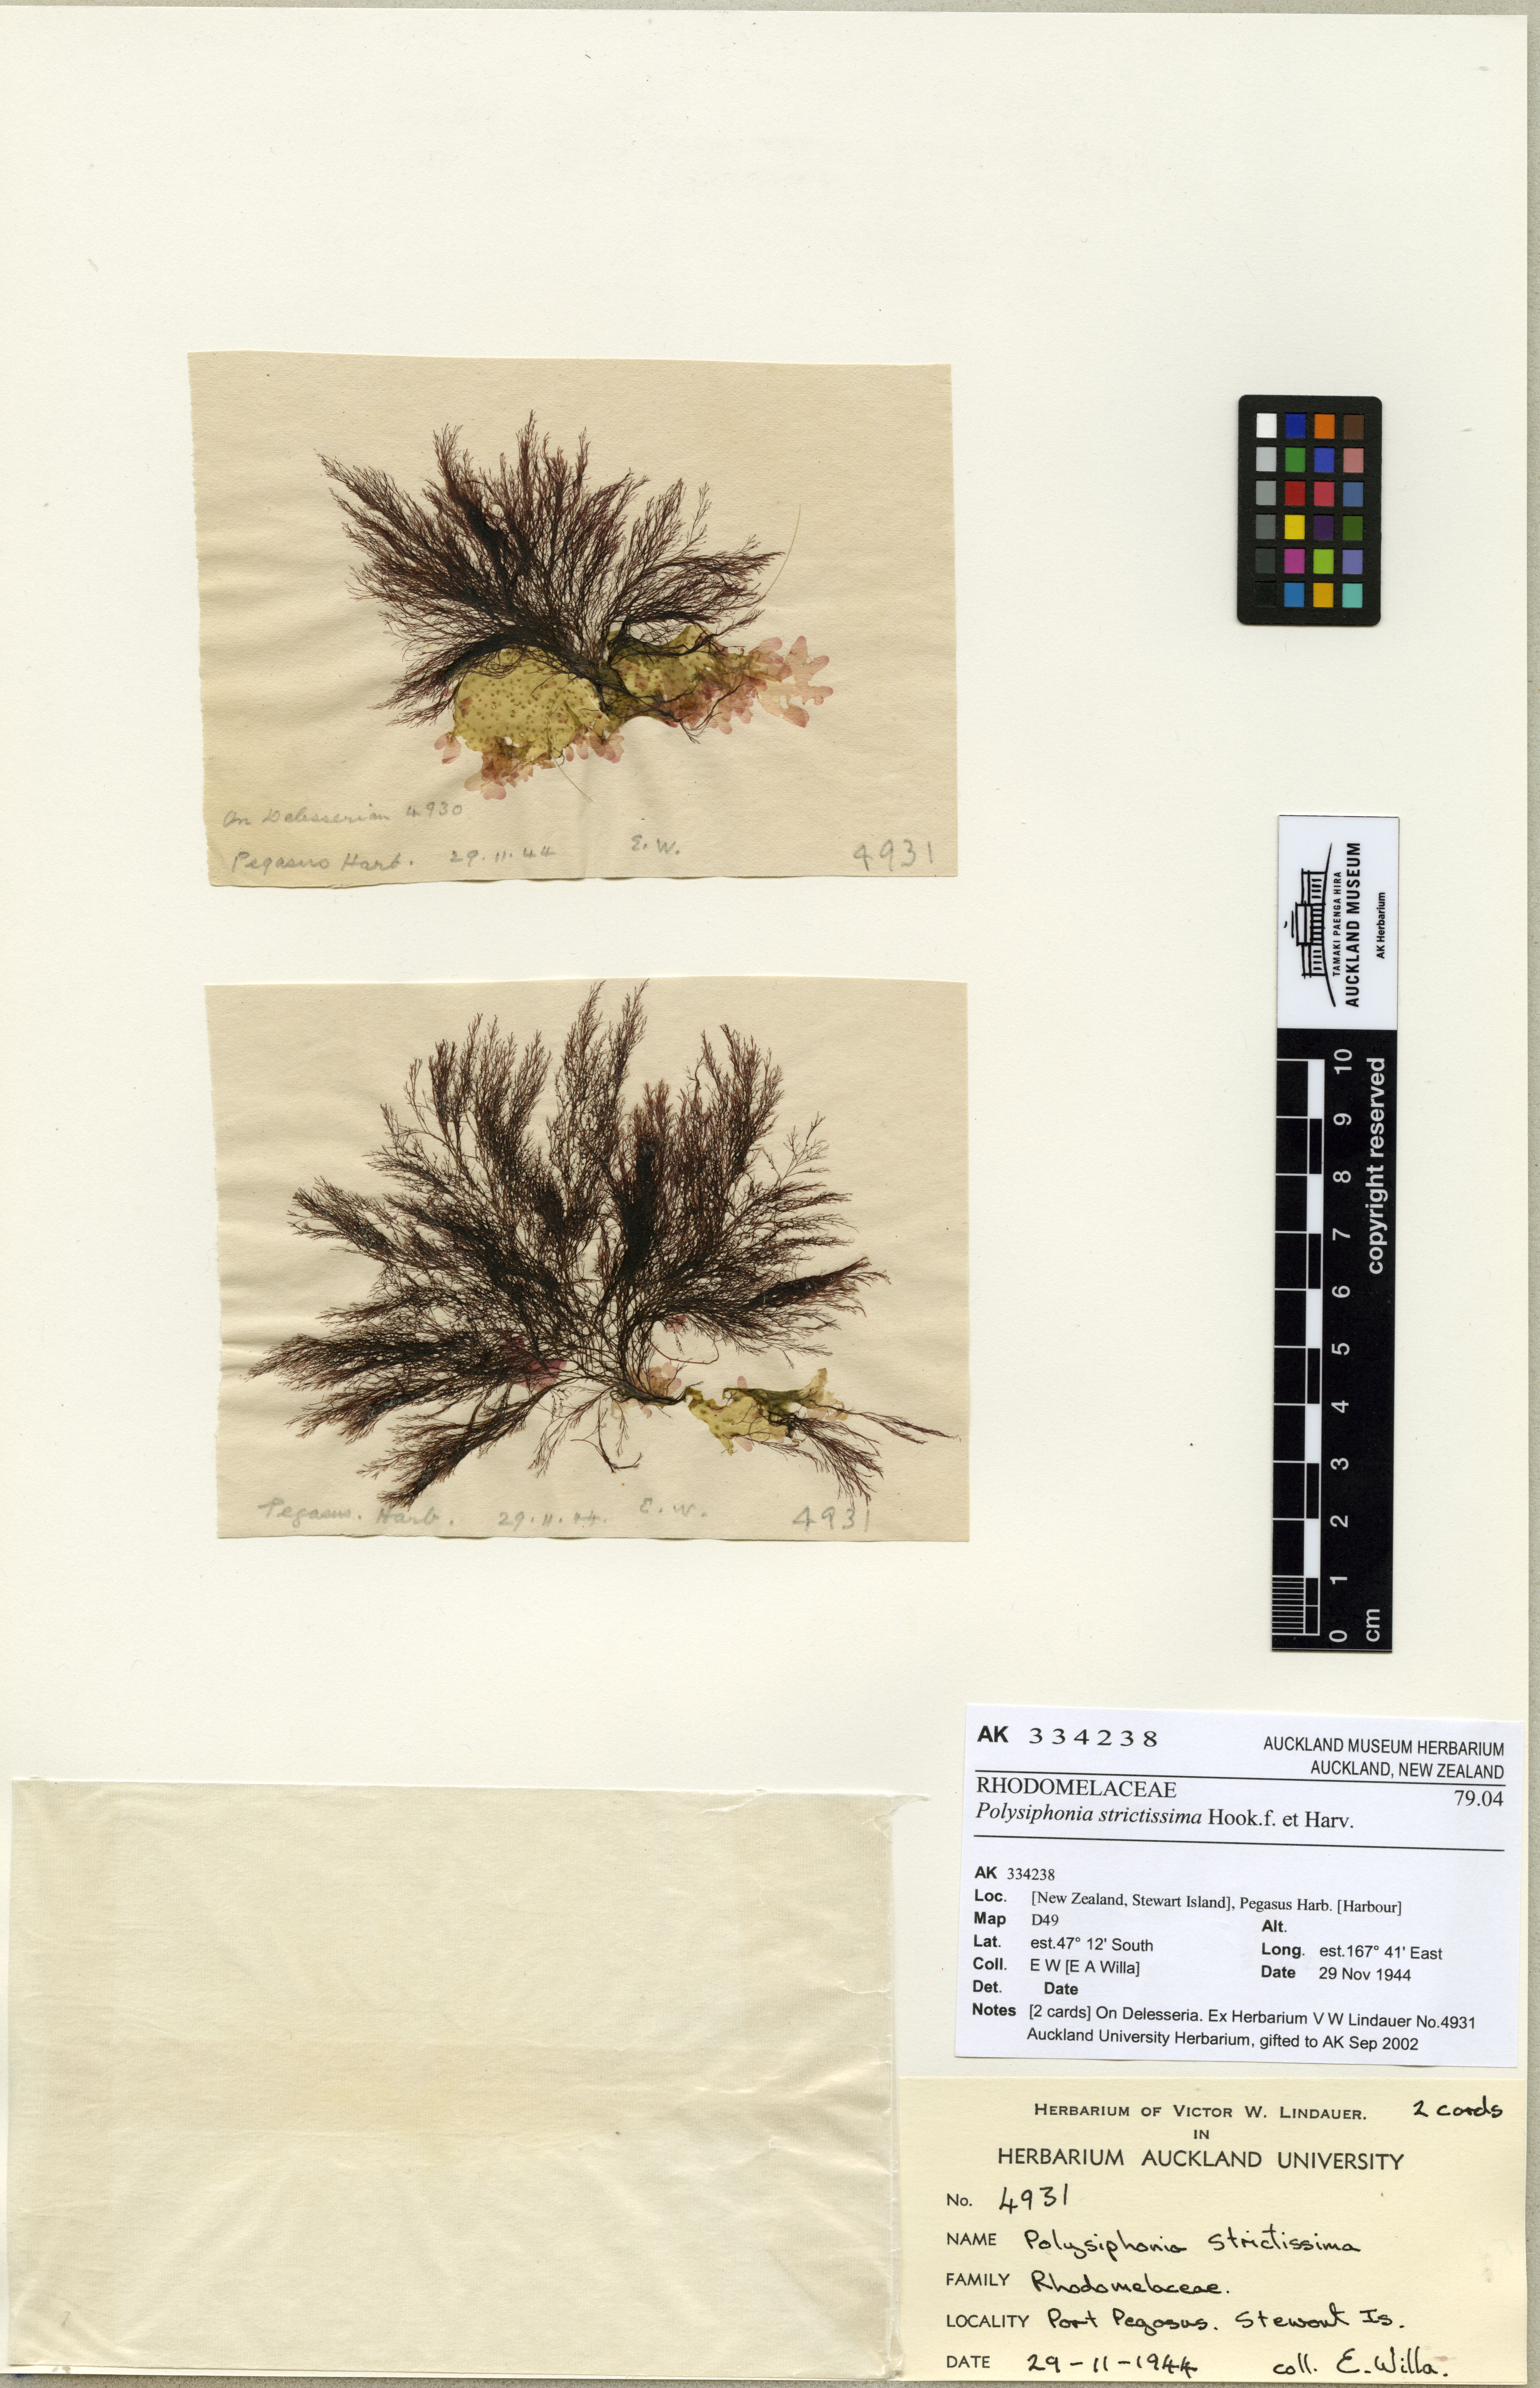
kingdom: Plantae
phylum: Rhodophyta
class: Florideophyceae
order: Ceramiales
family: Rhodomelaceae
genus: Polysiphonia
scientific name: Polysiphonia
